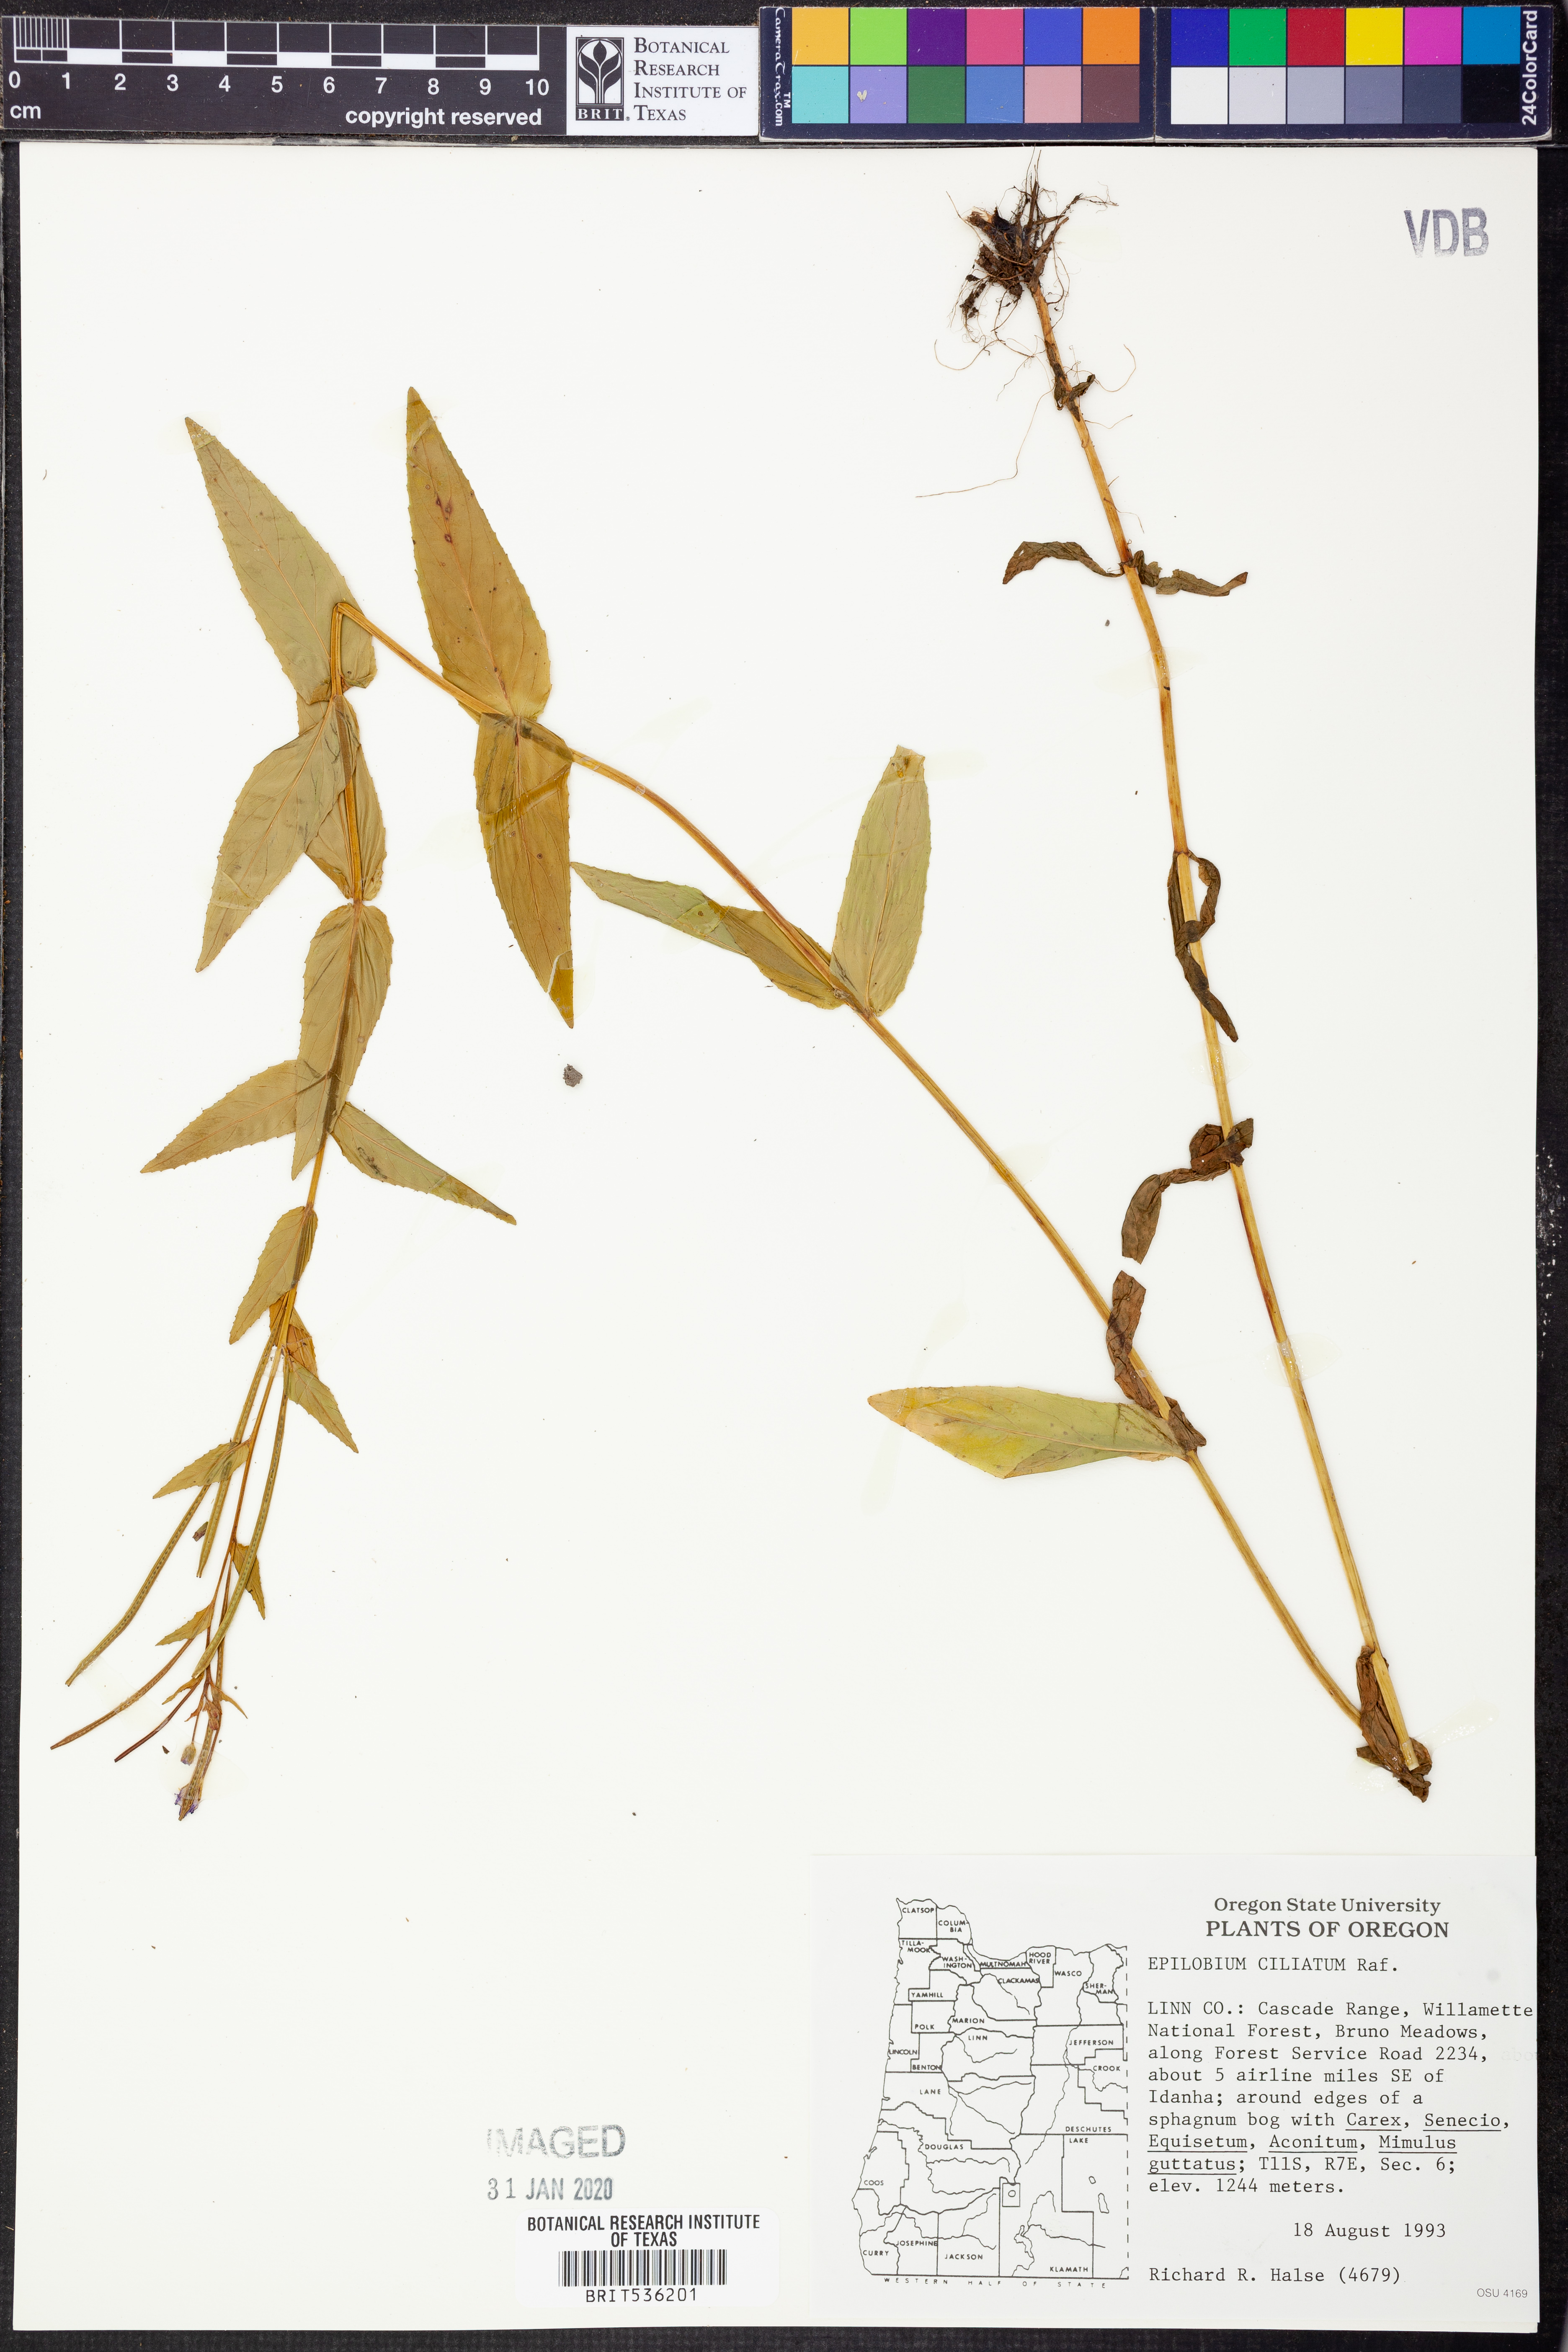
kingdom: Plantae
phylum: Tracheophyta
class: Magnoliopsida
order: Myrtales
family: Onagraceae
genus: Epilobium
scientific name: Epilobium ciliatum
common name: American willowherb
